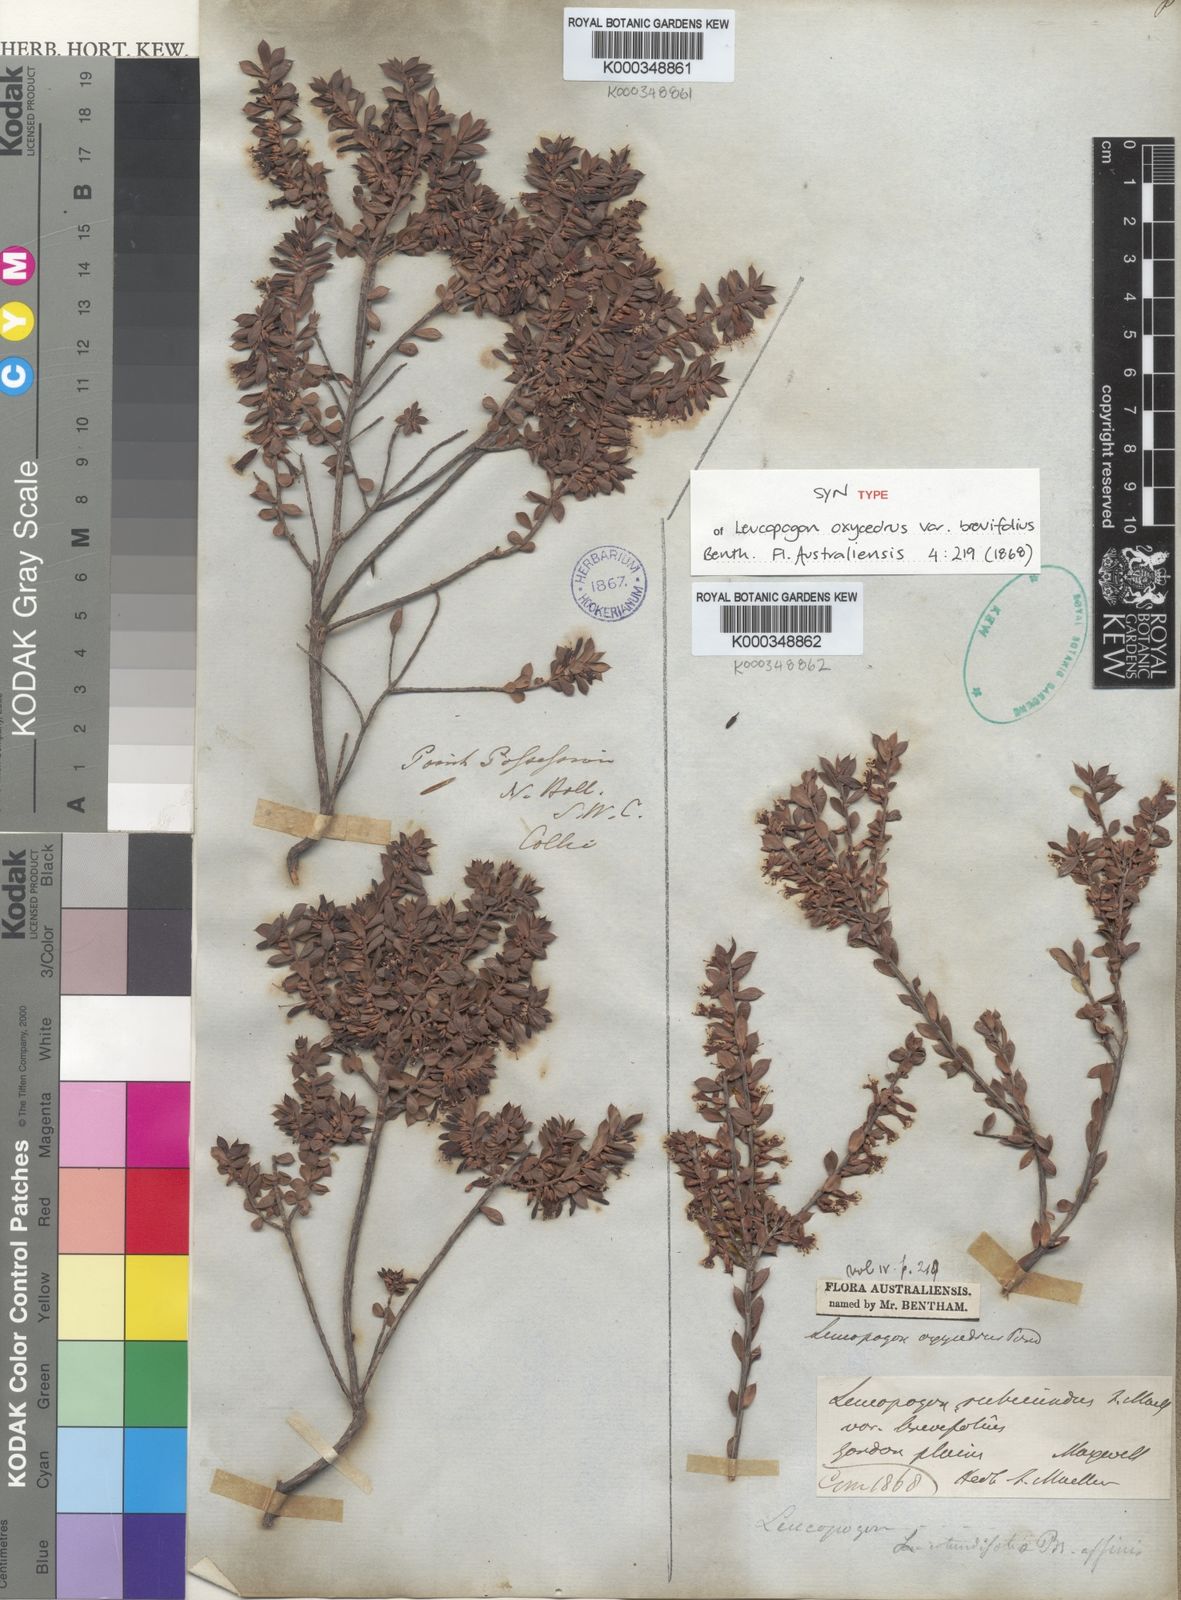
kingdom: Plantae
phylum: Tracheophyta
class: Magnoliopsida
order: Ericales
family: Ericaceae
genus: Leptecophylla
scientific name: Leptecophylla oxycedrus
